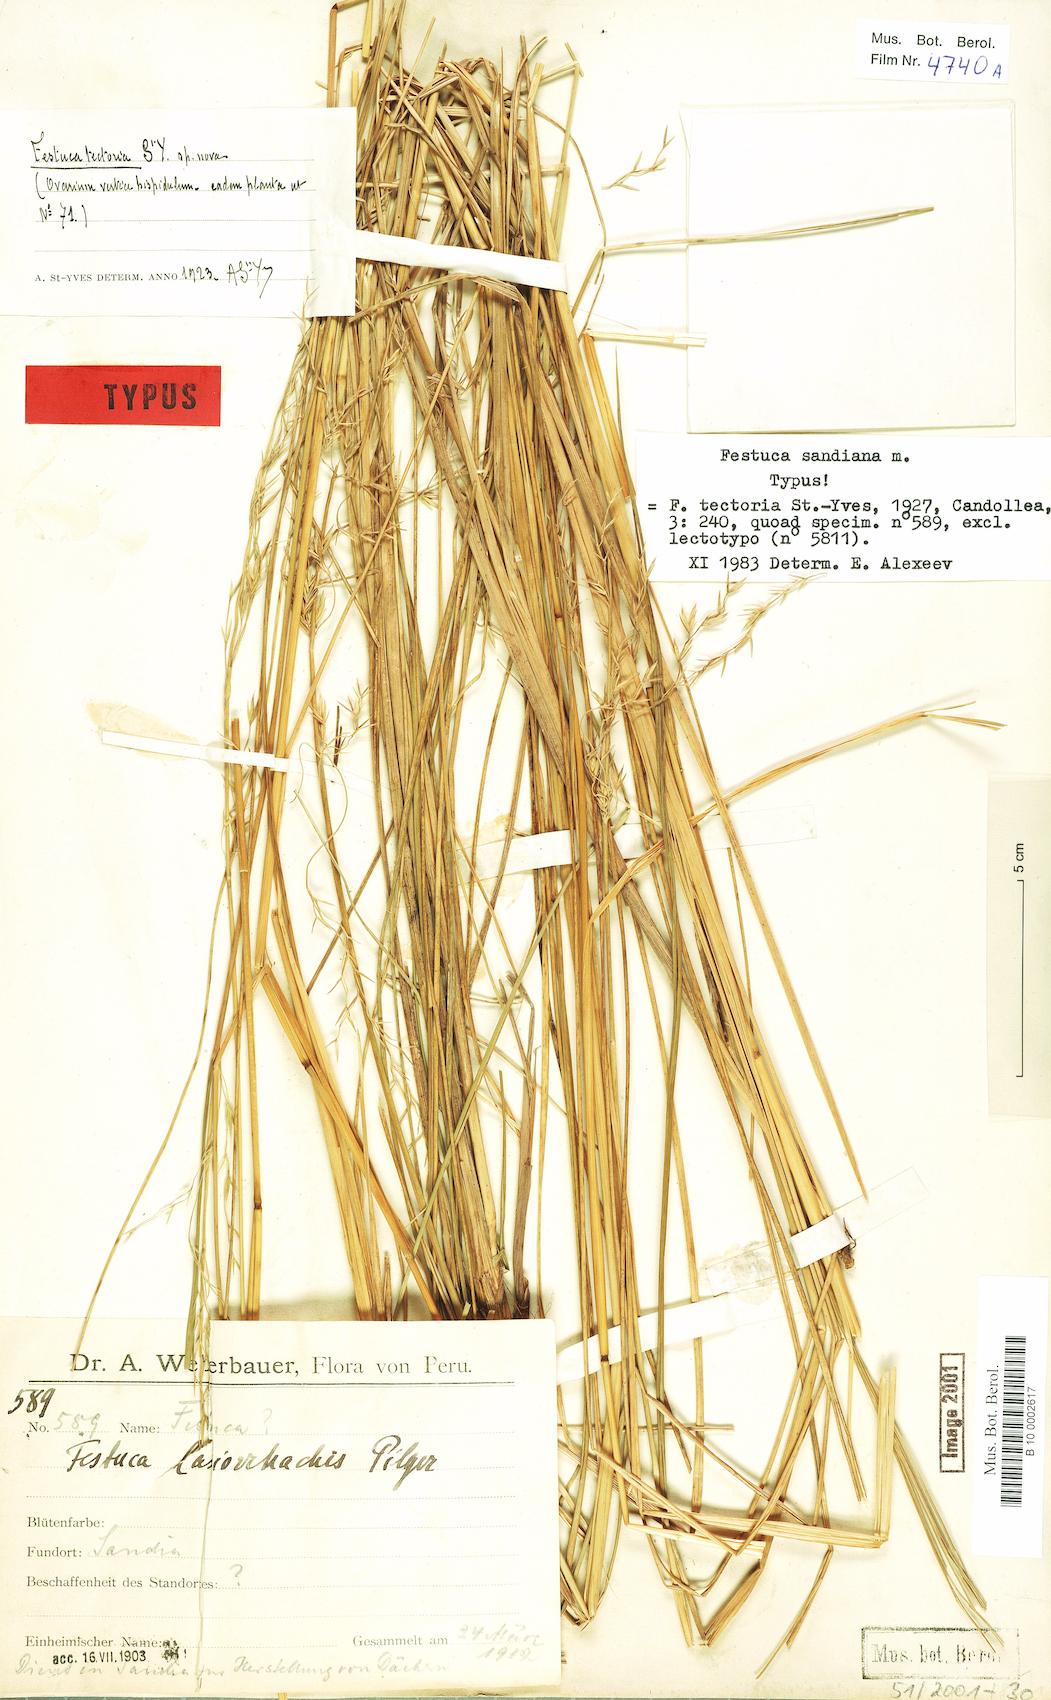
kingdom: Plantae
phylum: Tracheophyta
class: Liliopsida
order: Poales
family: Poaceae
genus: Festuca
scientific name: Festuca
